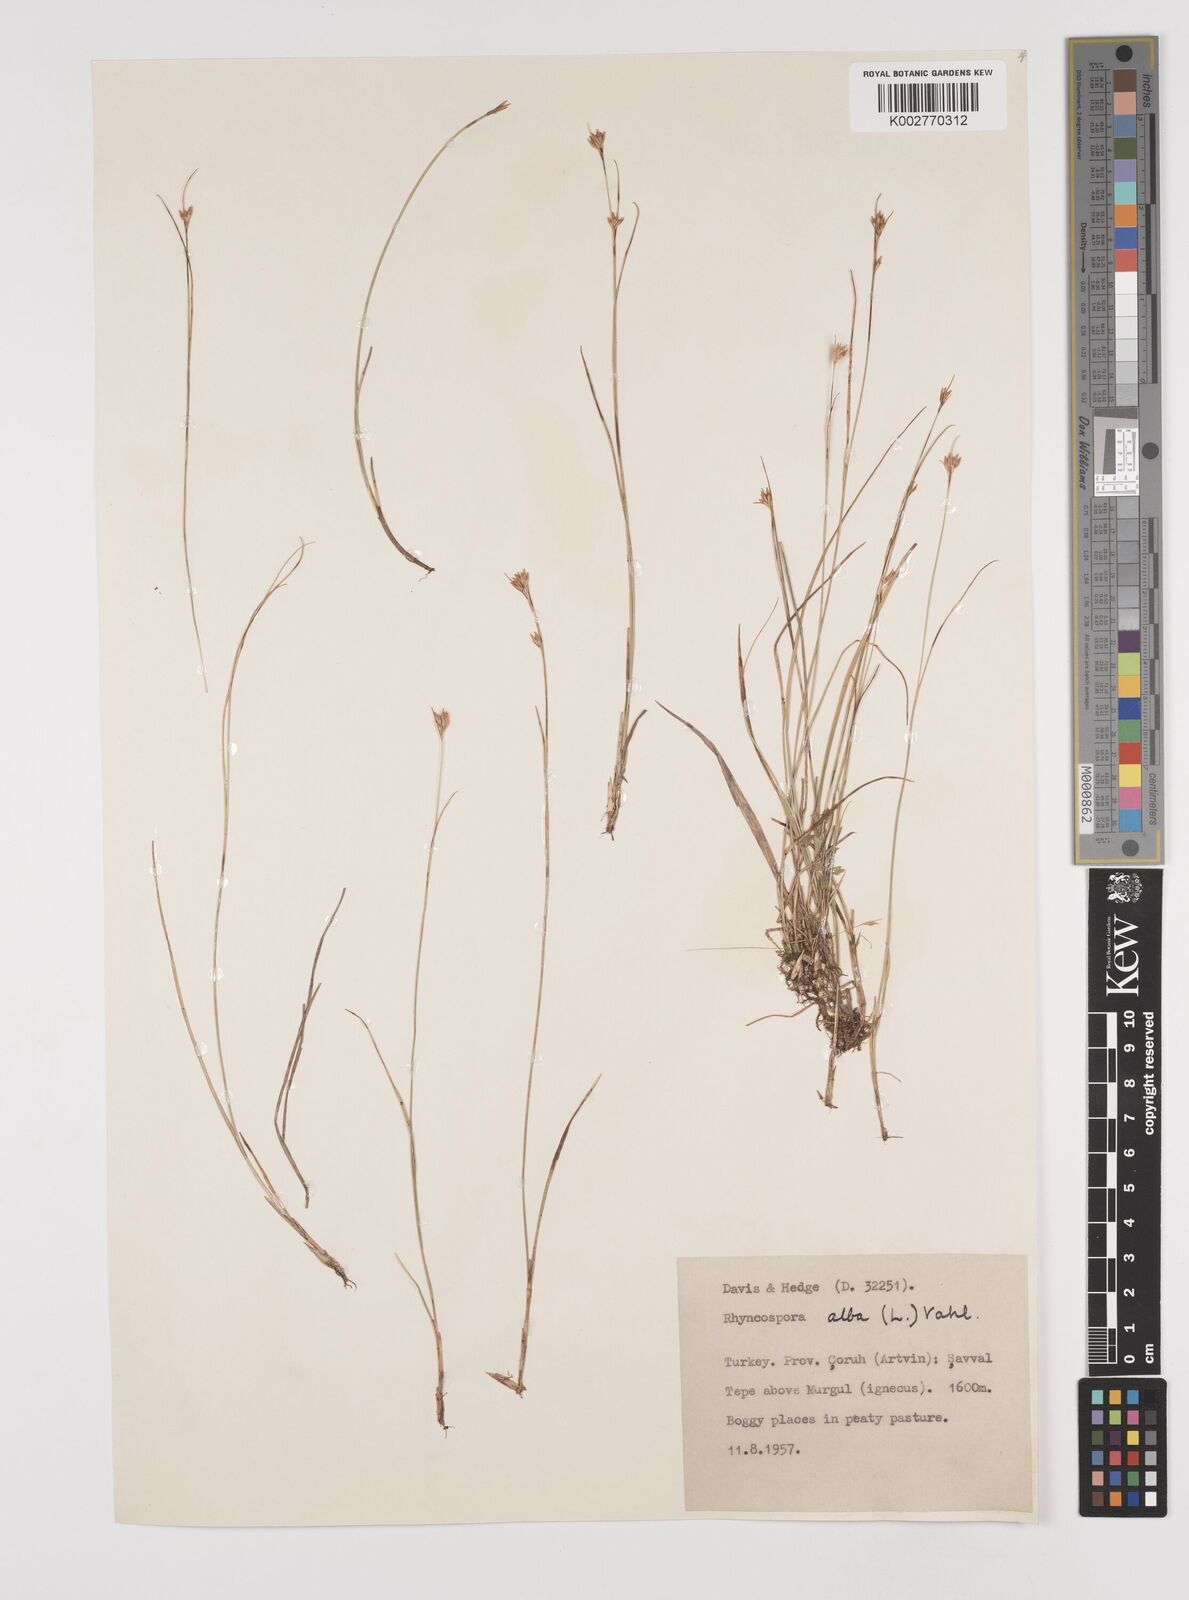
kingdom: Plantae
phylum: Tracheophyta
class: Liliopsida
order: Poales
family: Cyperaceae
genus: Rhynchospora
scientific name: Rhynchospora alba
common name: White beak-sedge
